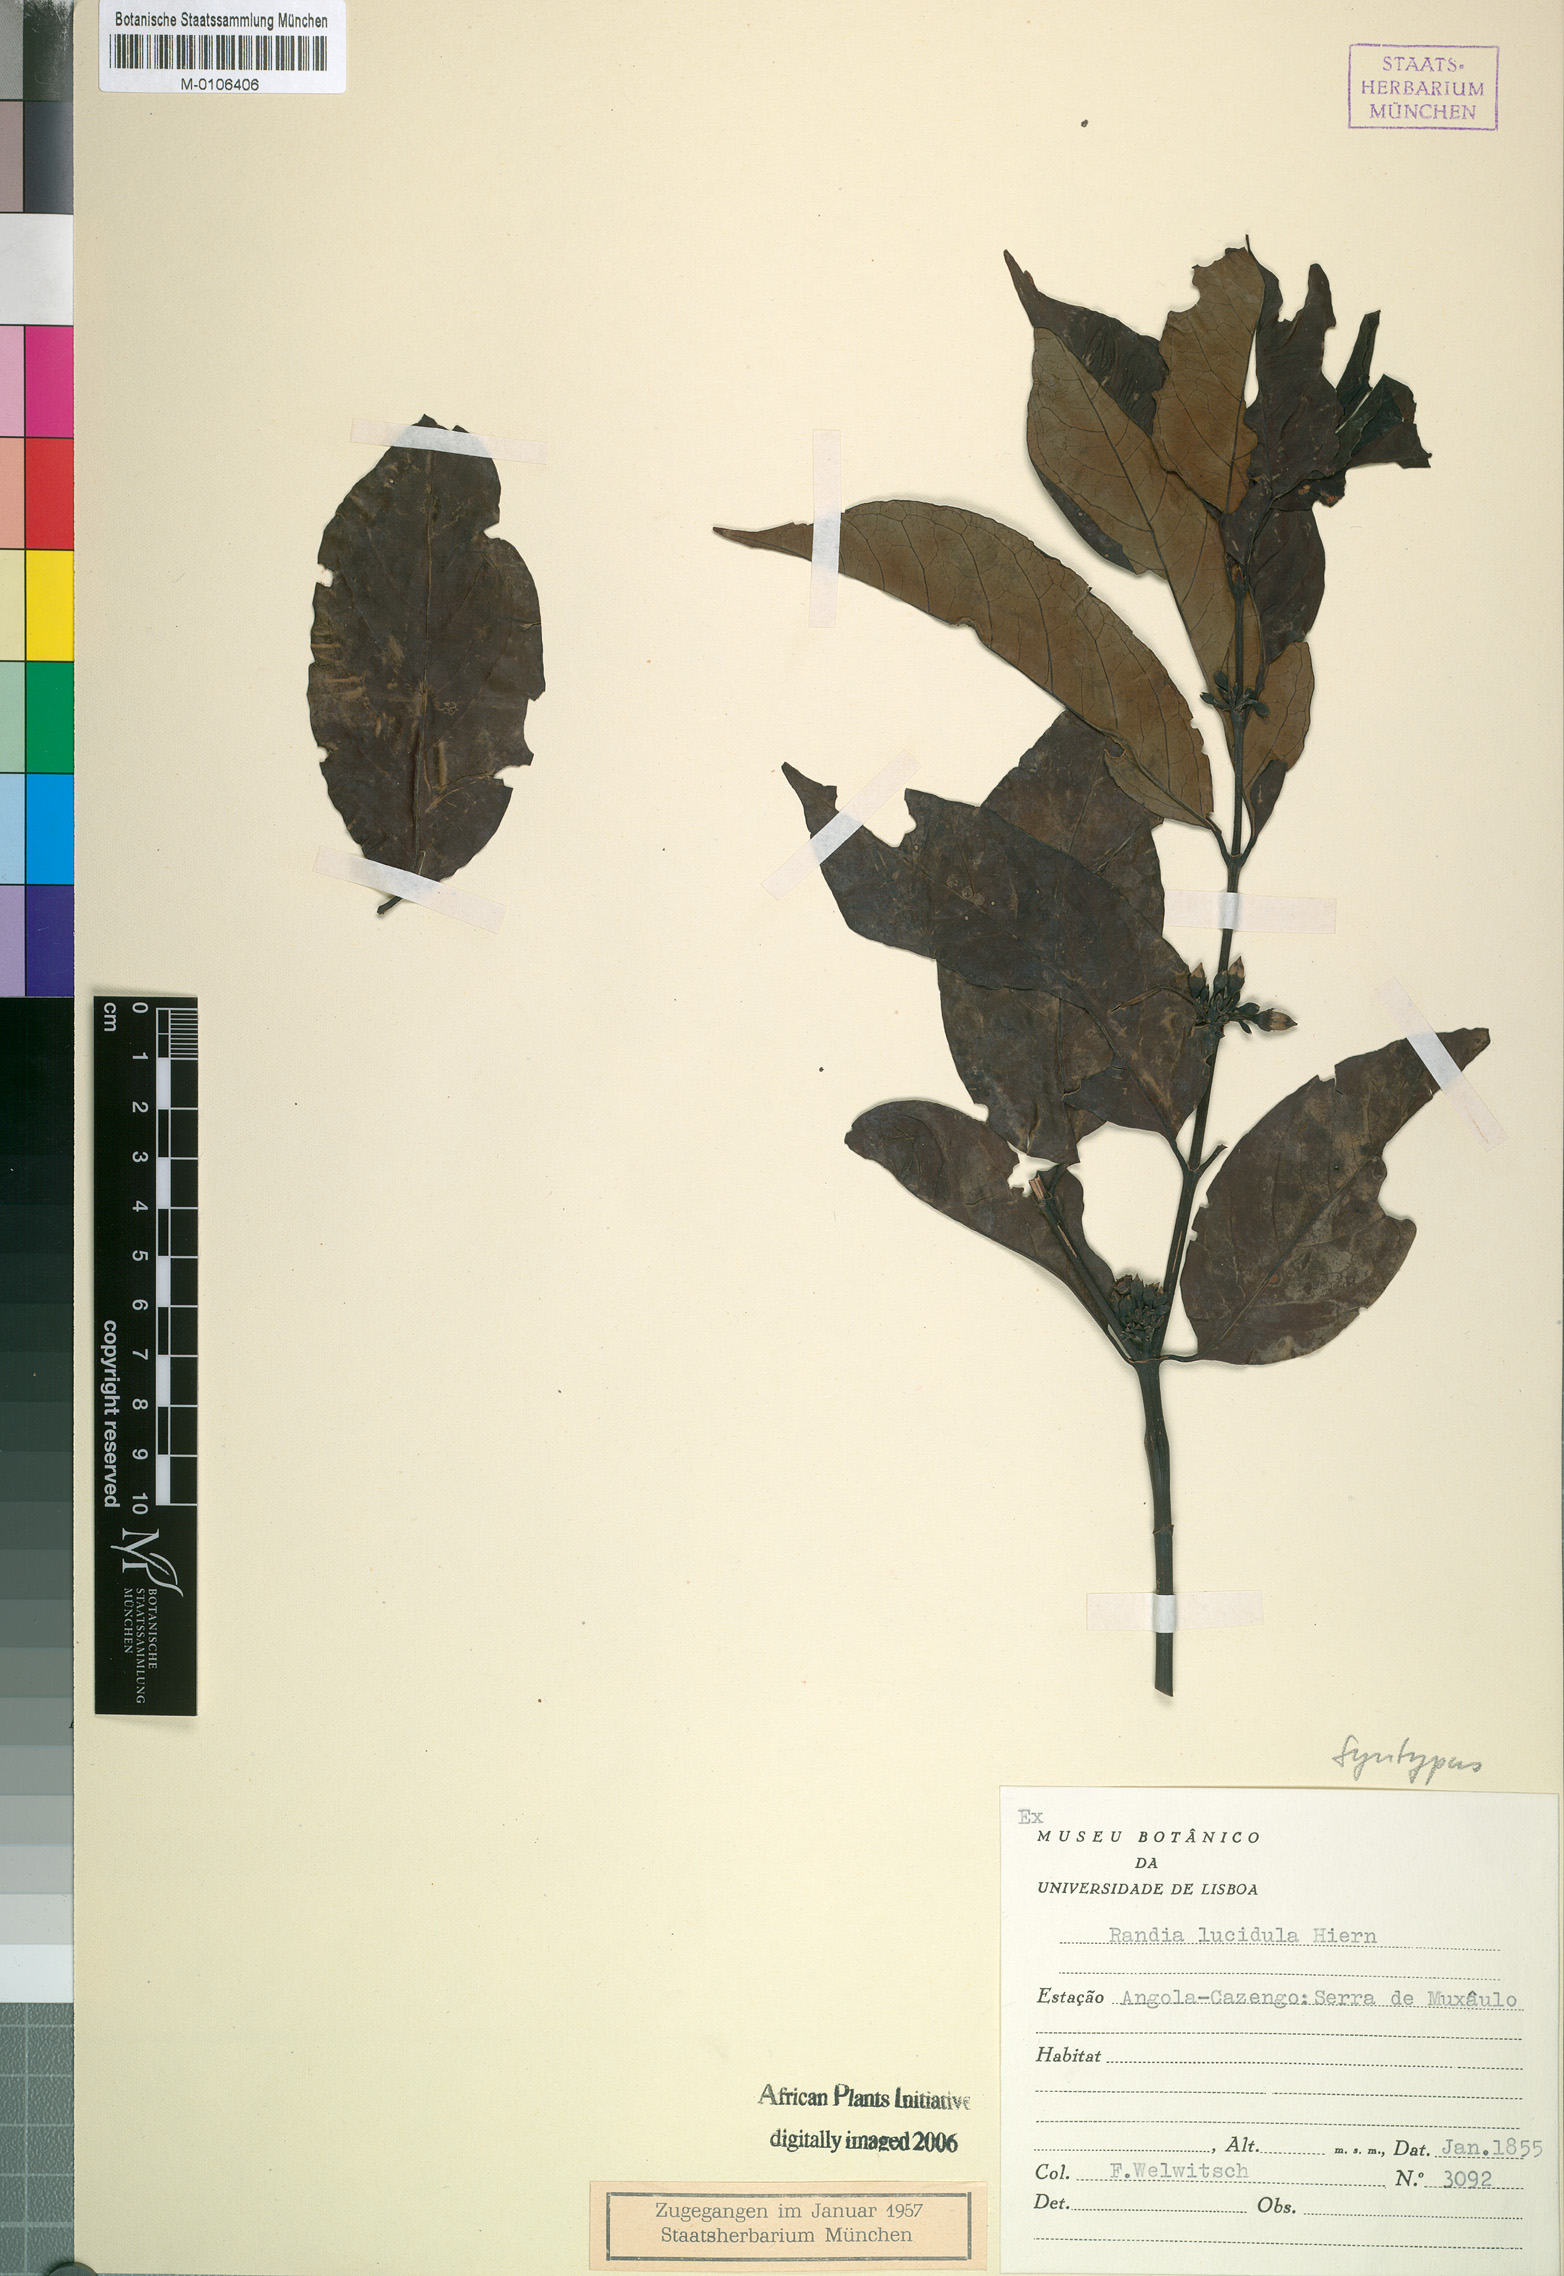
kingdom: Plantae
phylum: Tracheophyta
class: Magnoliopsida
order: Gentianales
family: Rubiaceae
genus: Aidia
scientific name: Aidia micrantha
